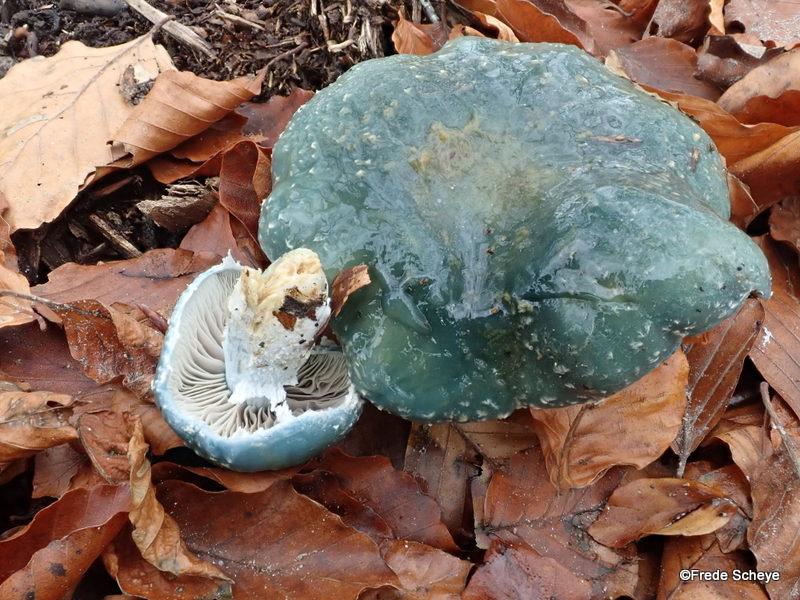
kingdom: Fungi
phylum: Basidiomycota
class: Agaricomycetes
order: Agaricales
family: Strophariaceae
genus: Stropharia
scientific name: Stropharia cyanea
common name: blågrøn bredblad
